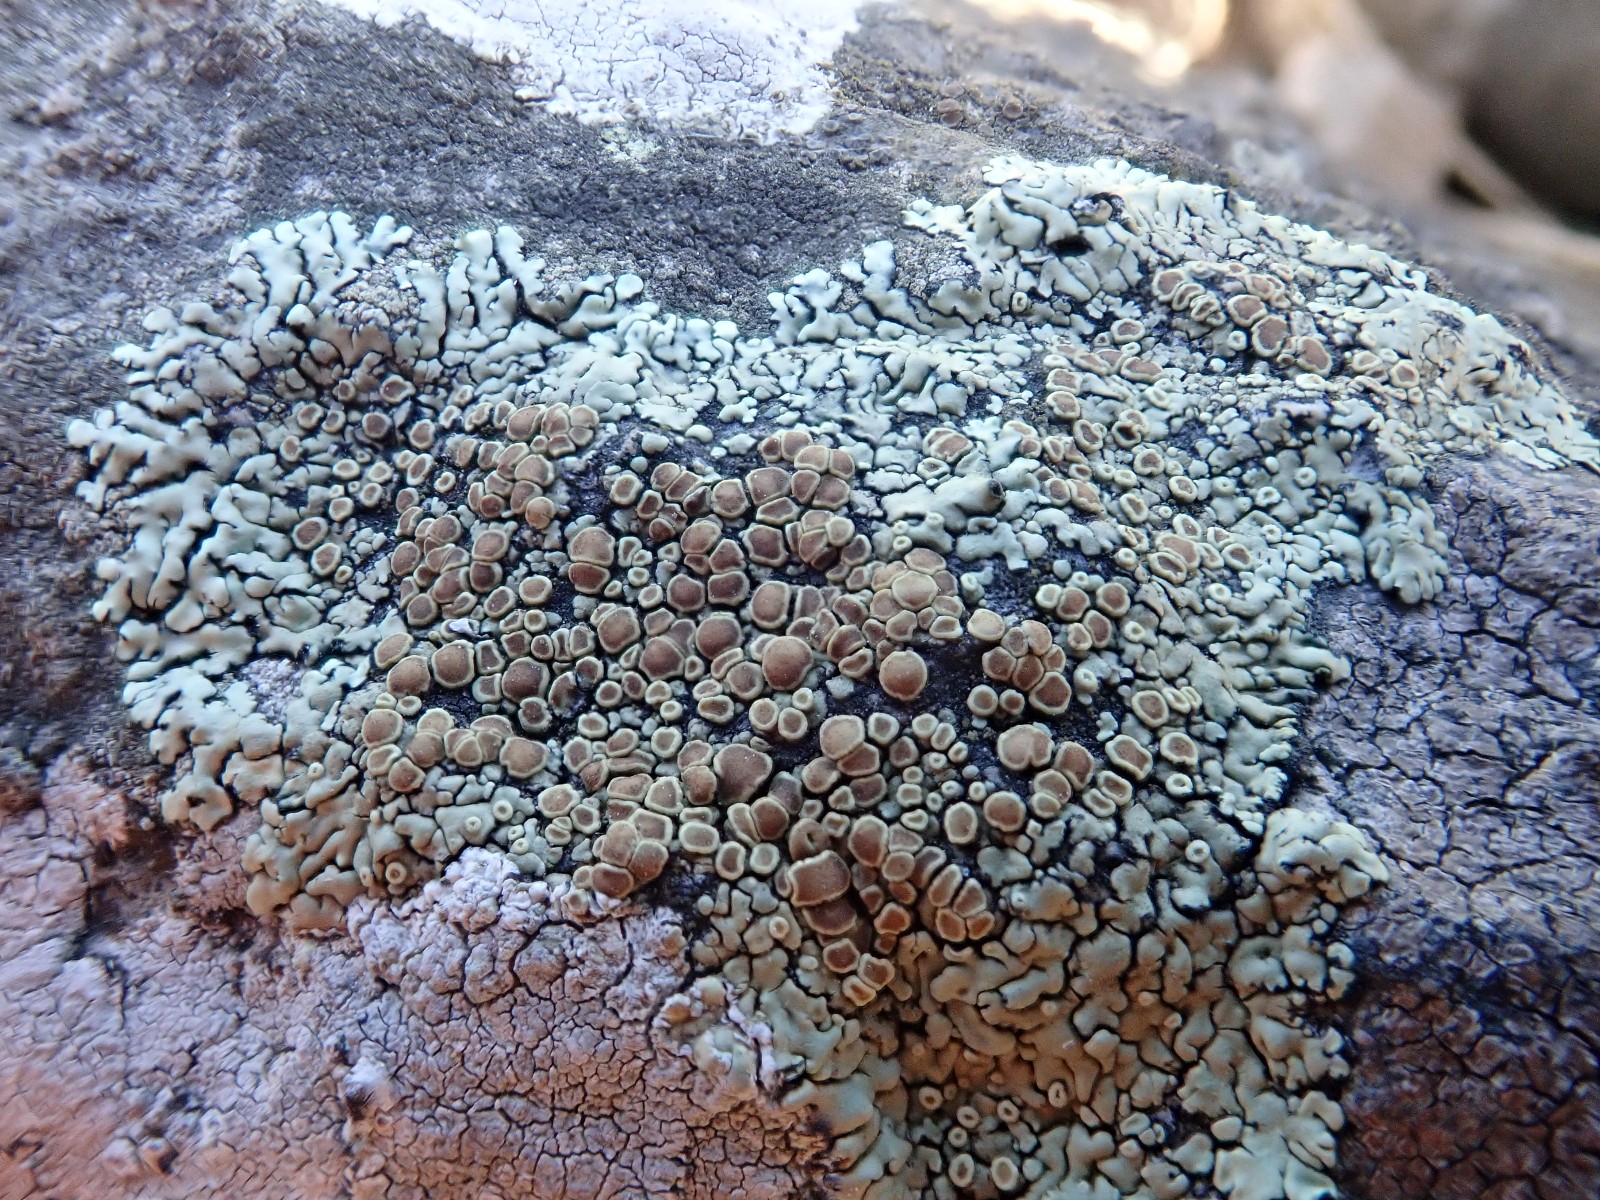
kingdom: Fungi
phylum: Ascomycota
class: Lecanoromycetes
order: Lecanorales
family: Lecanoraceae
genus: Protoparmeliopsis
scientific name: Protoparmeliopsis muralis
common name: randfliget kantskivelav
